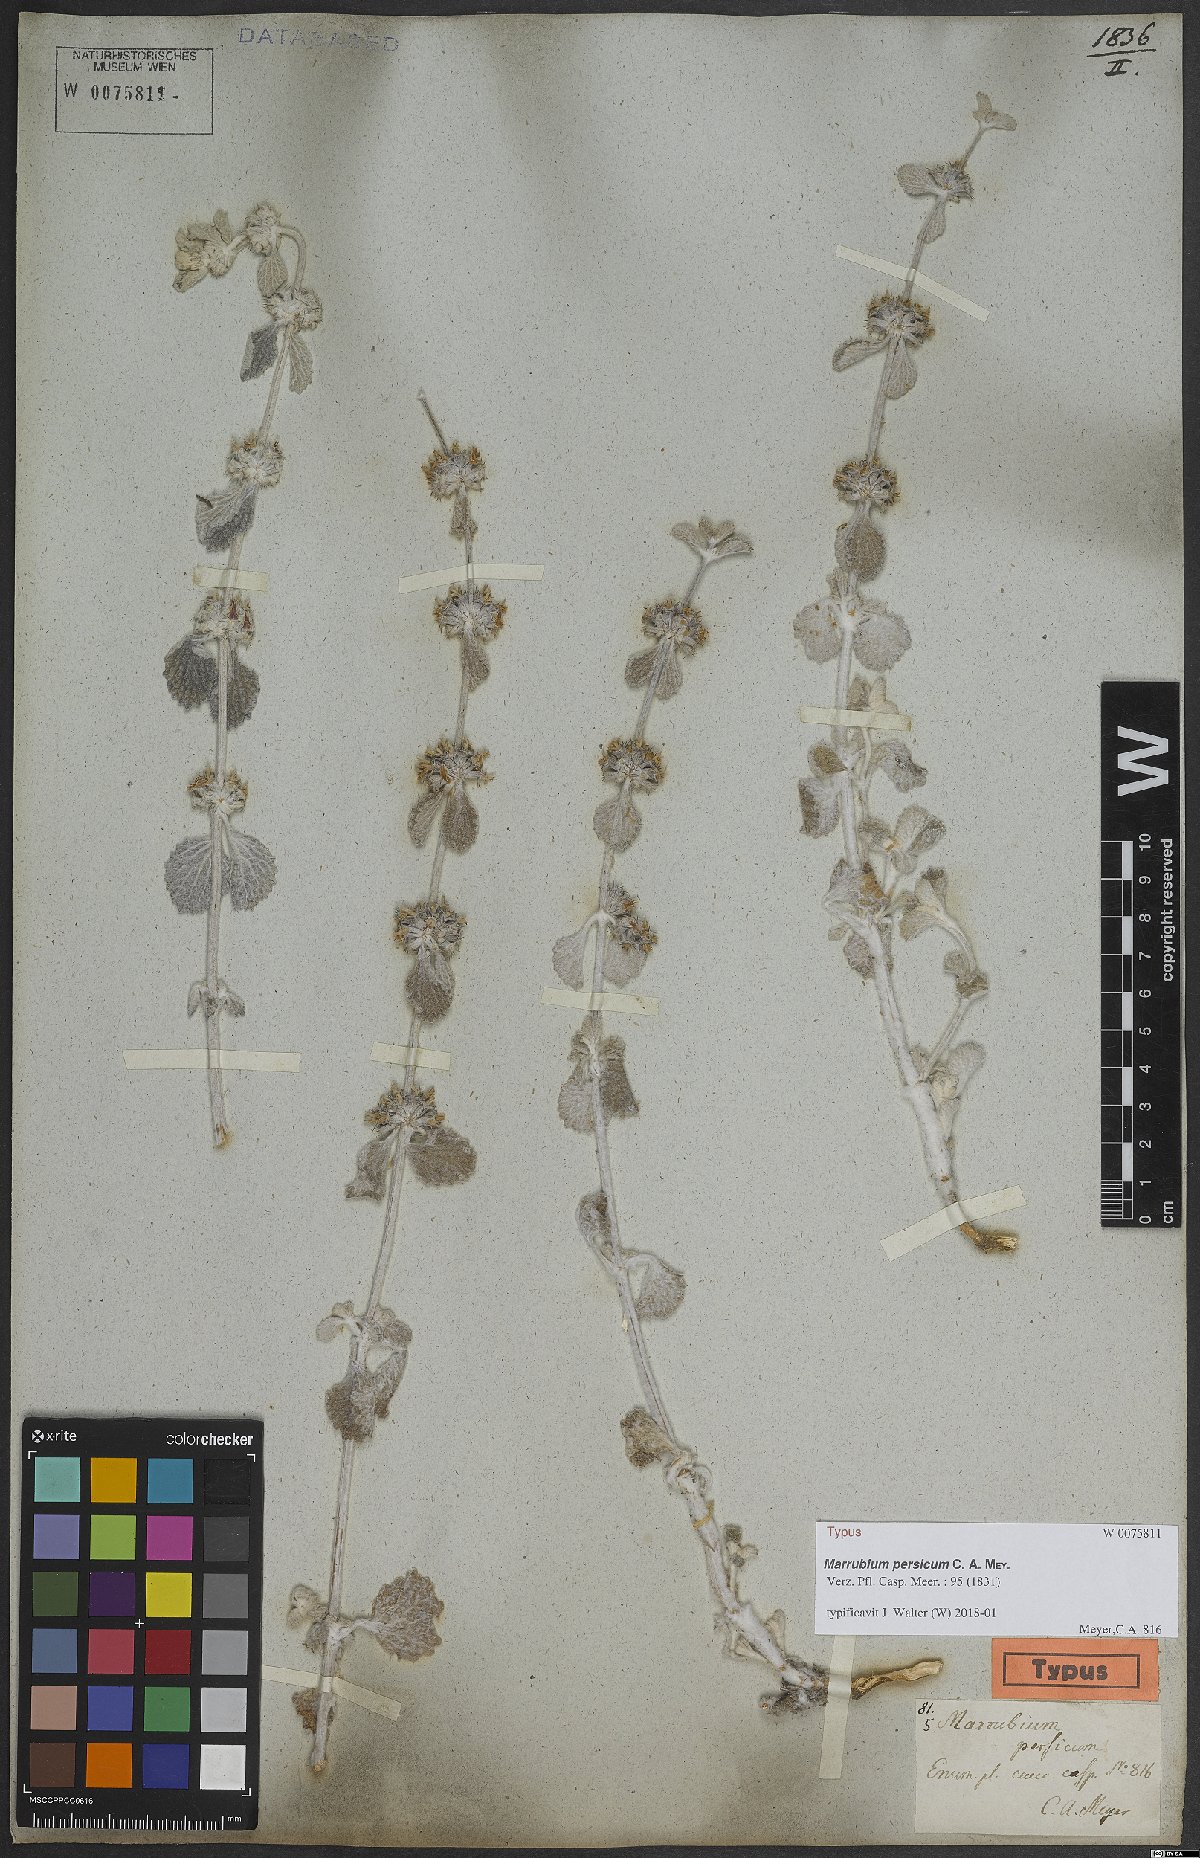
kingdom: Plantae
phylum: Tracheophyta
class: Magnoliopsida
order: Lamiales
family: Lamiaceae
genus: Marrubium
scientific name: Marrubium persicum
